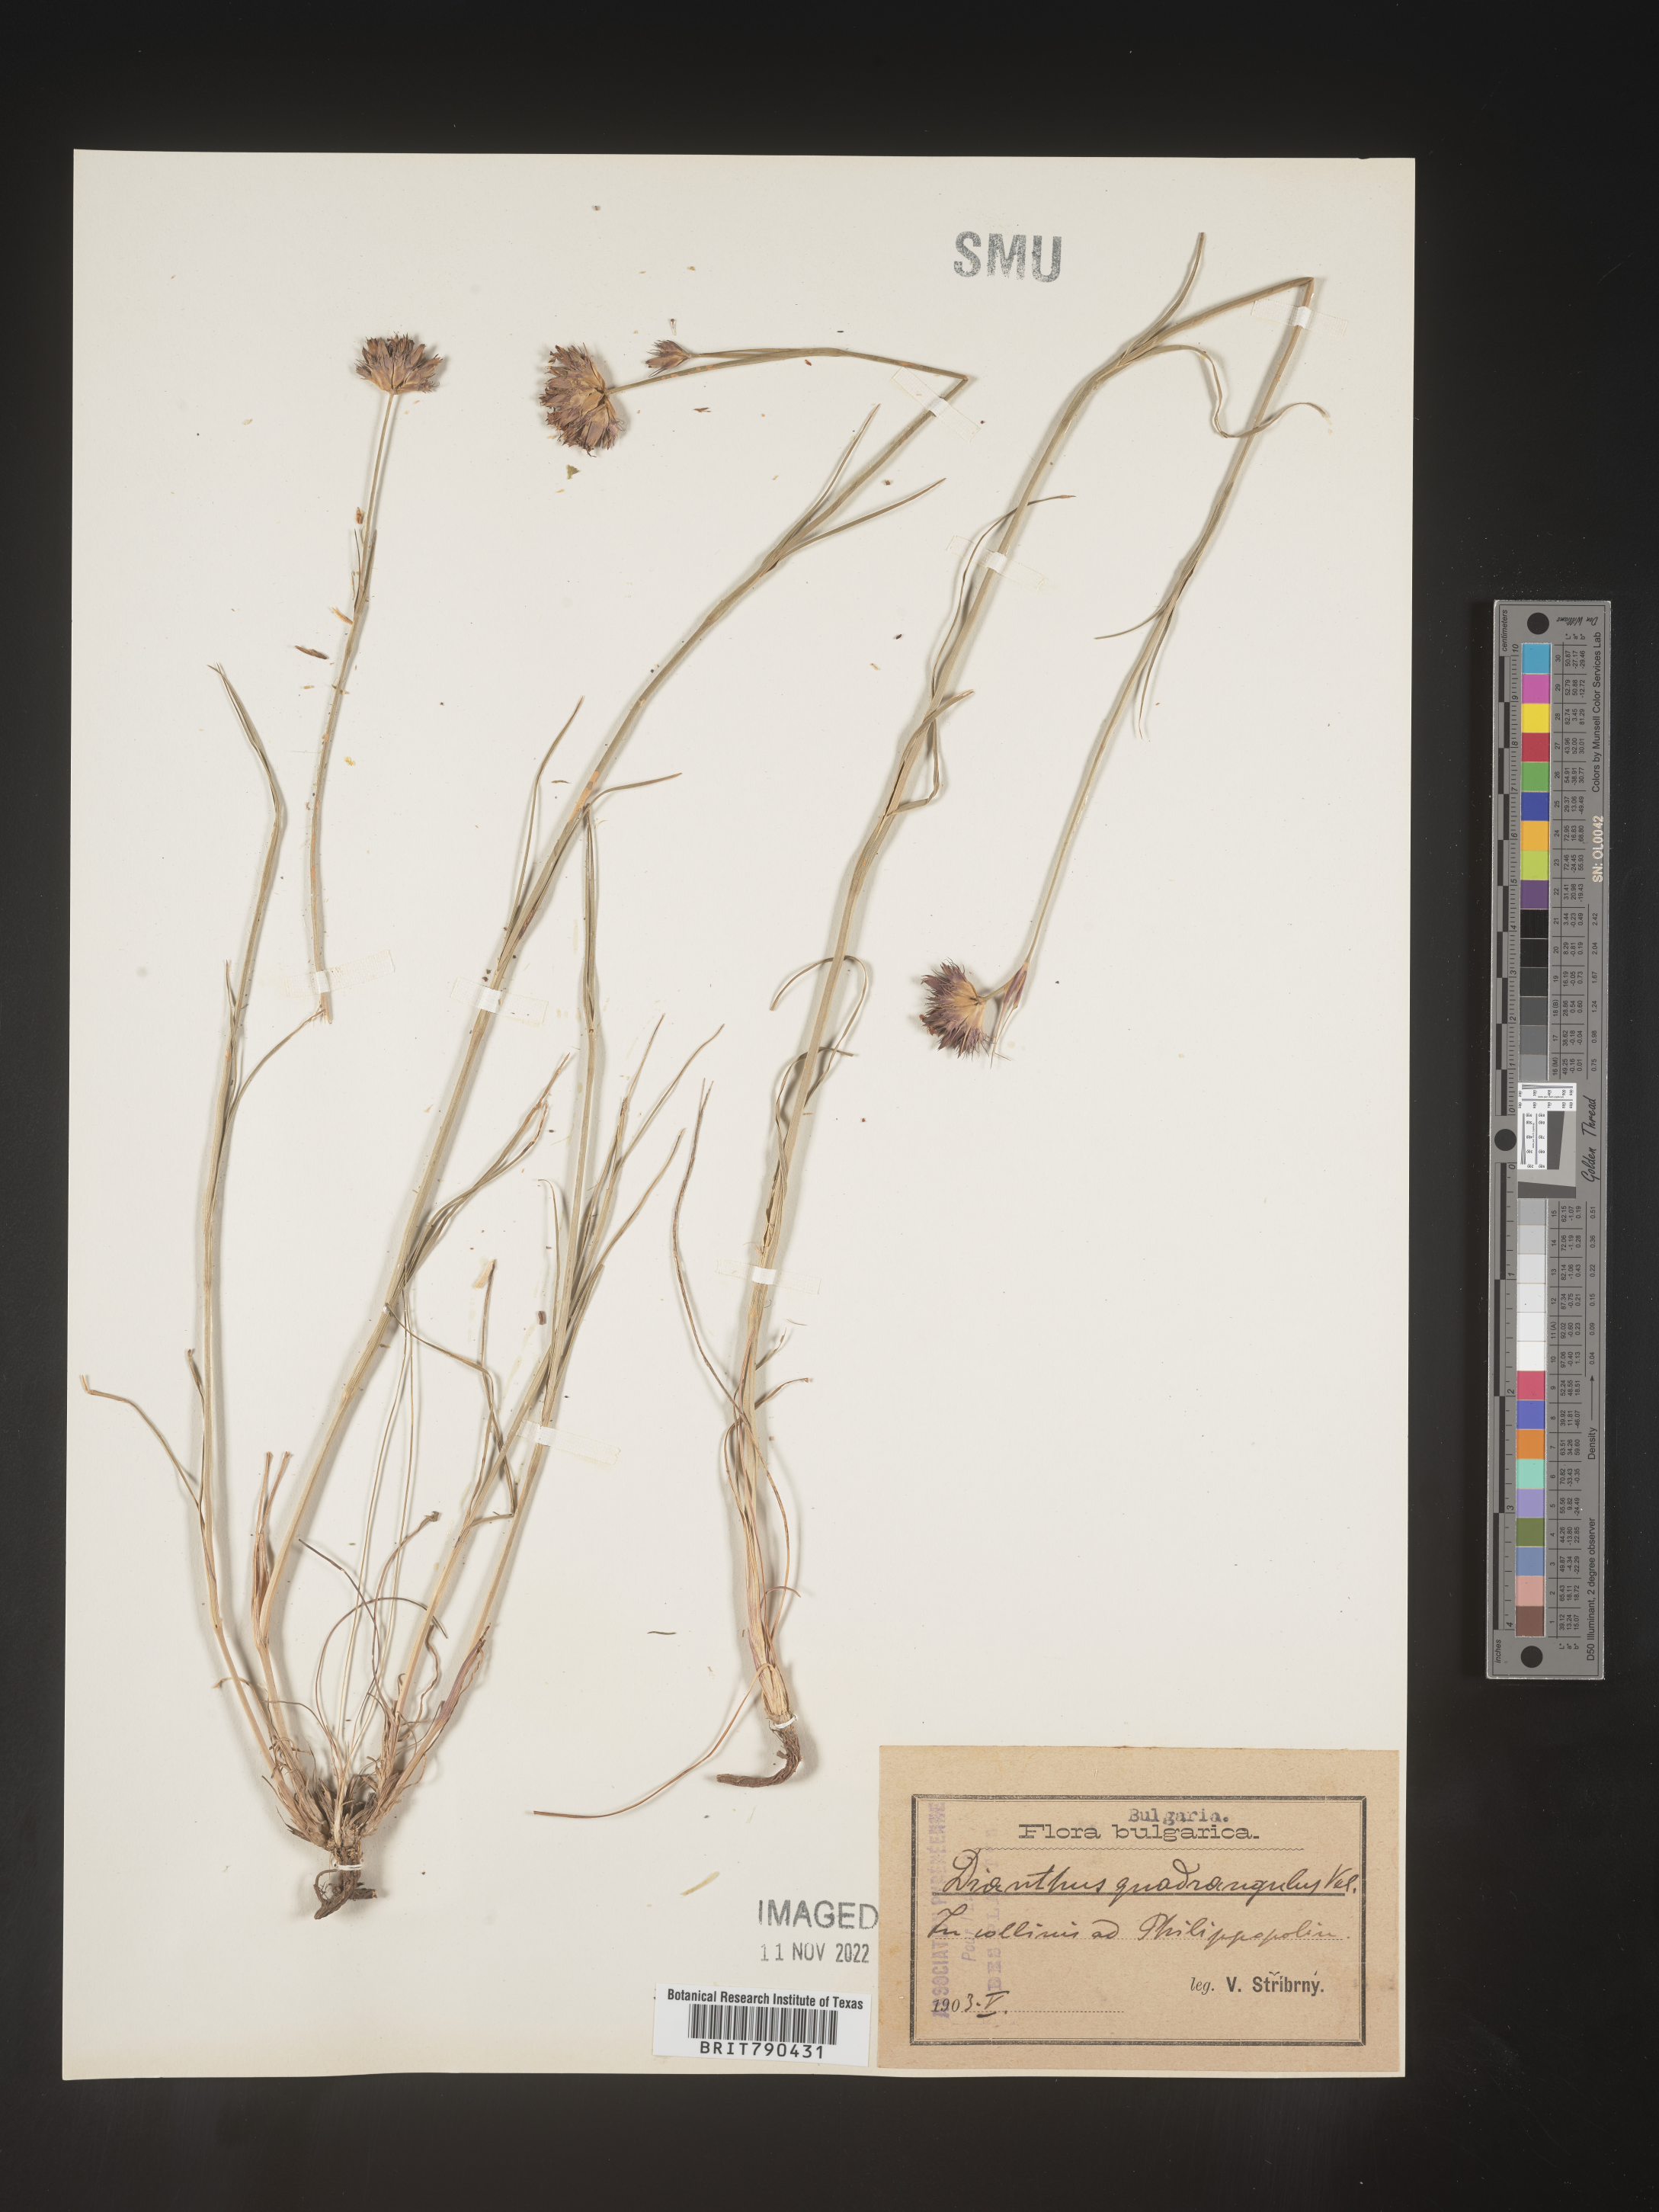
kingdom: Plantae
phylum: Tracheophyta
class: Magnoliopsida
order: Caryophyllales
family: Caryophyllaceae
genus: Dianthus
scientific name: Dianthus
